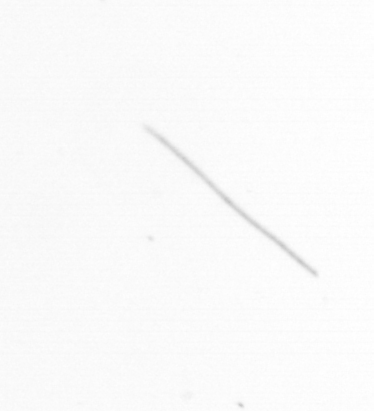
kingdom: Chromista
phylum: Ochrophyta
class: Bacillariophyceae
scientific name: Bacillariophyceae
